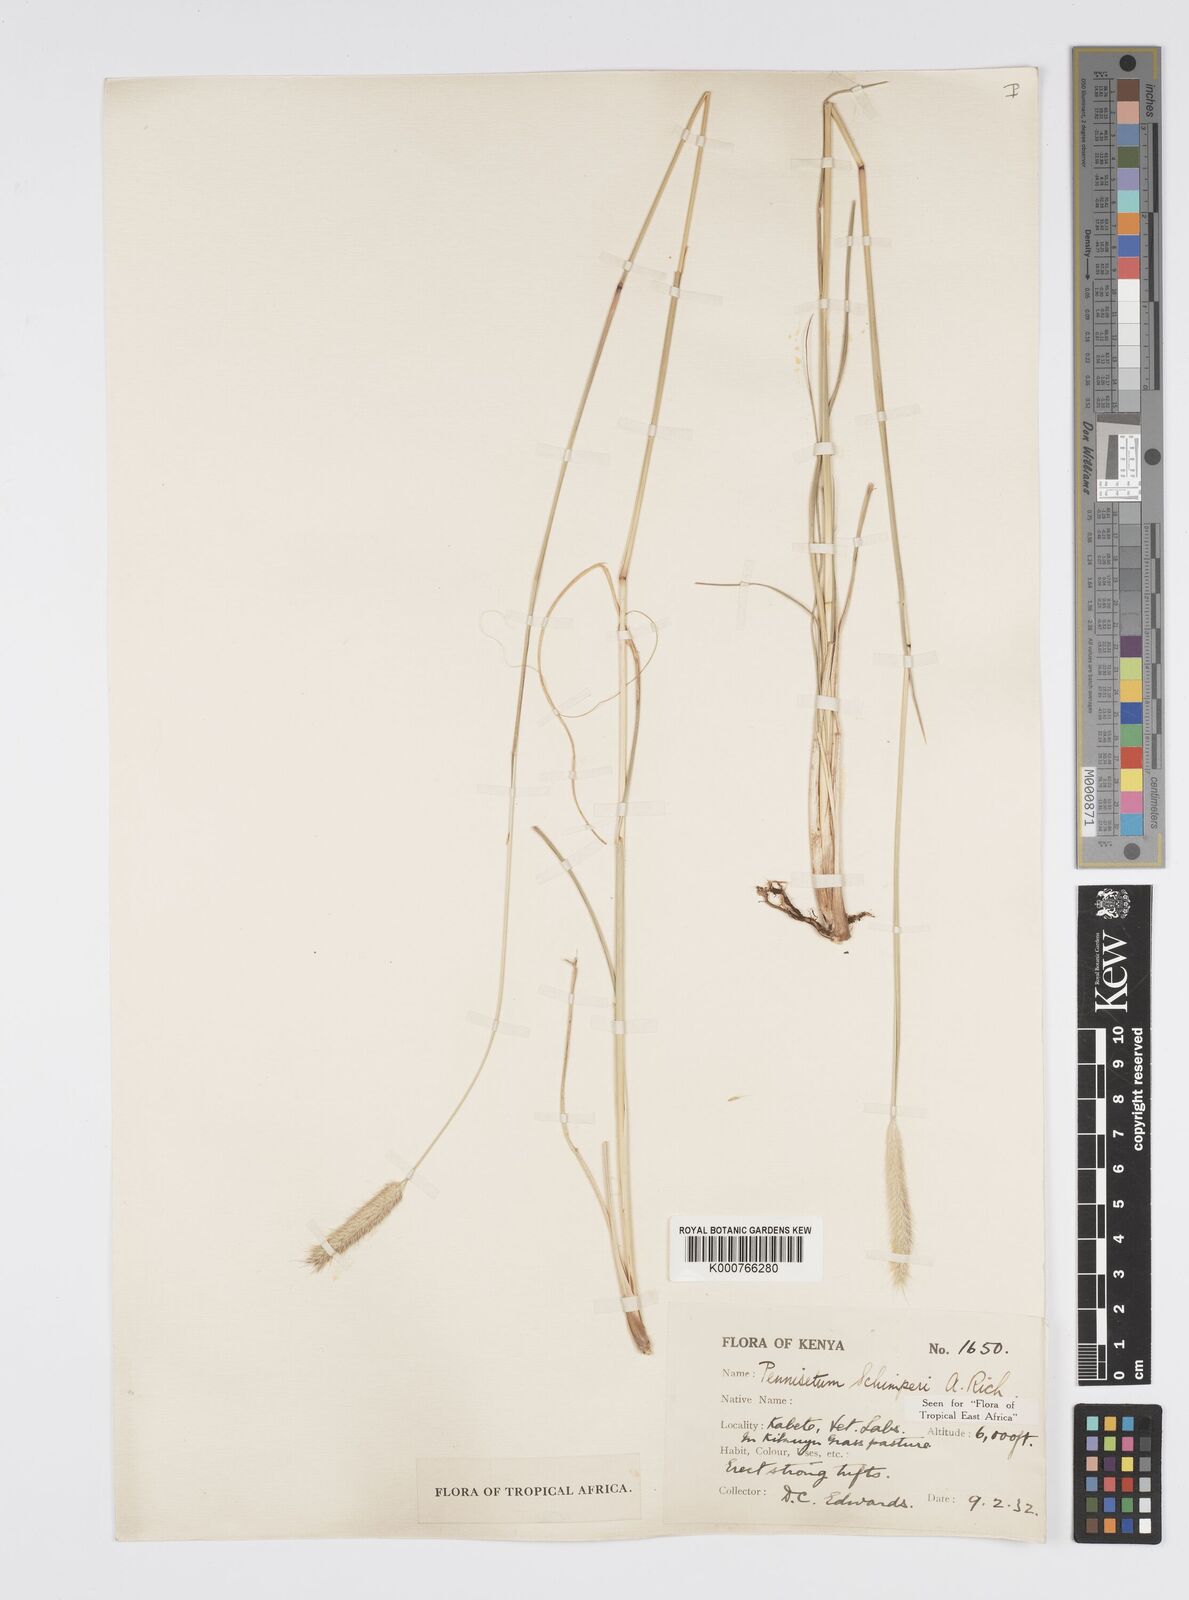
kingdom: Plantae
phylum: Tracheophyta
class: Liliopsida
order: Poales
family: Poaceae
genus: Cenchrus
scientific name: Cenchrus sphacelatus
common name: Bulgras
